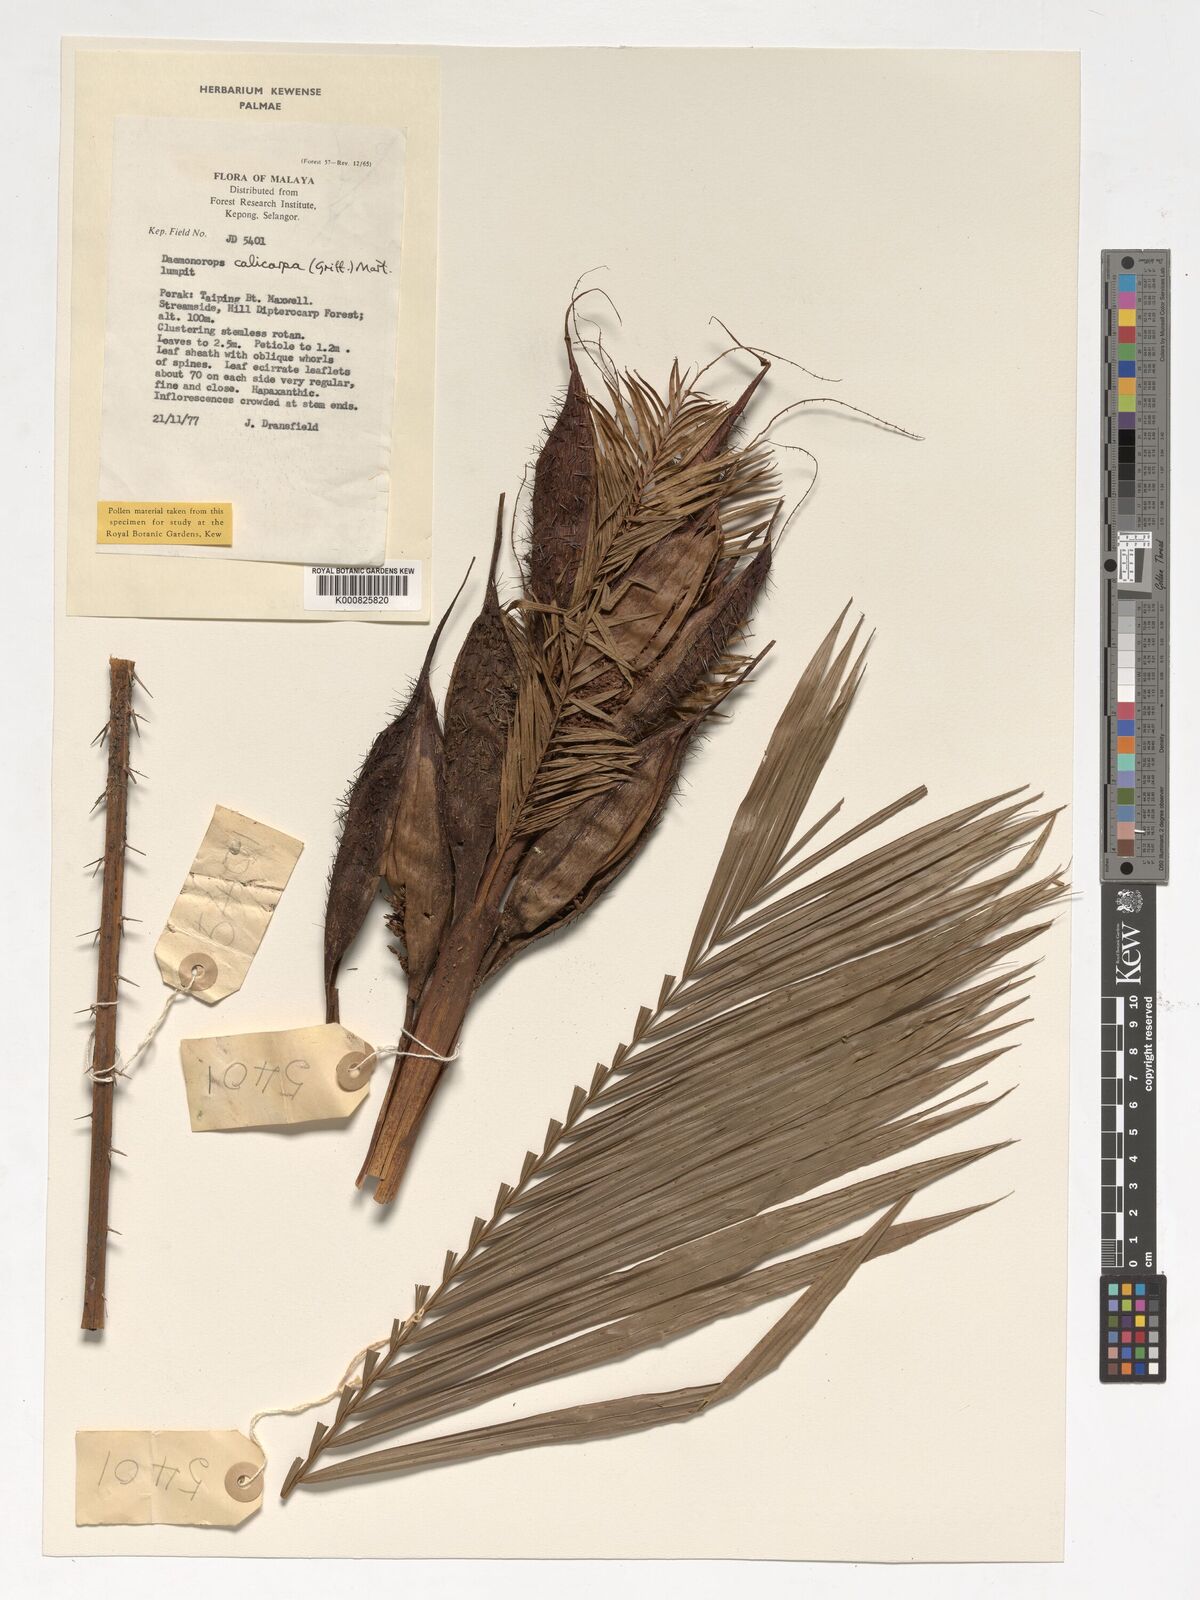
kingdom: Plantae
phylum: Tracheophyta
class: Liliopsida
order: Arecales
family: Arecaceae
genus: Calamus
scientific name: Calamus calicarpus
